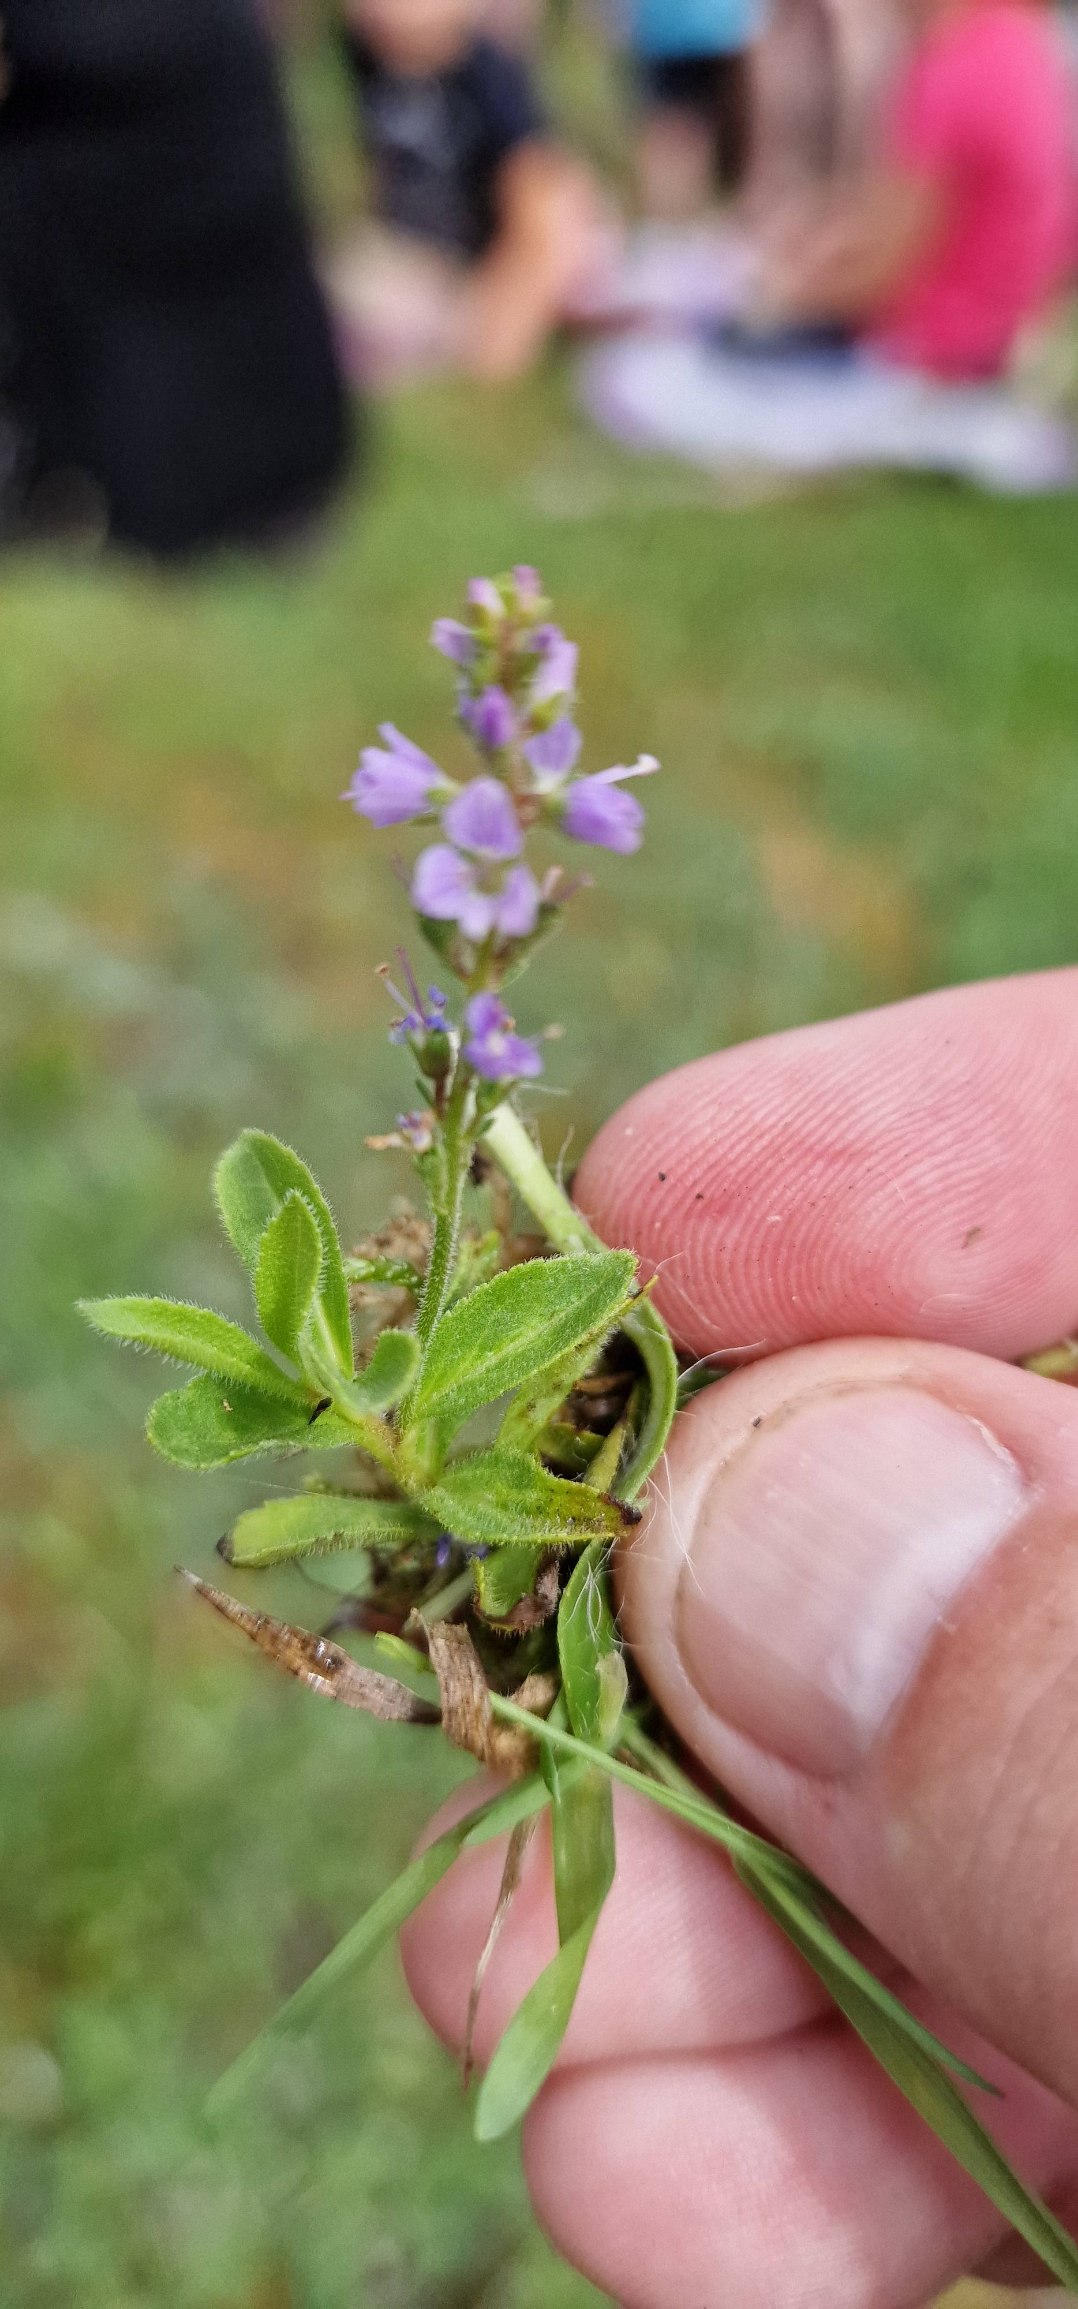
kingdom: Plantae
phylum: Tracheophyta
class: Magnoliopsida
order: Lamiales
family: Plantaginaceae
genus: Veronica
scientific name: Veronica officinalis
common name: Læge-ærenpris
